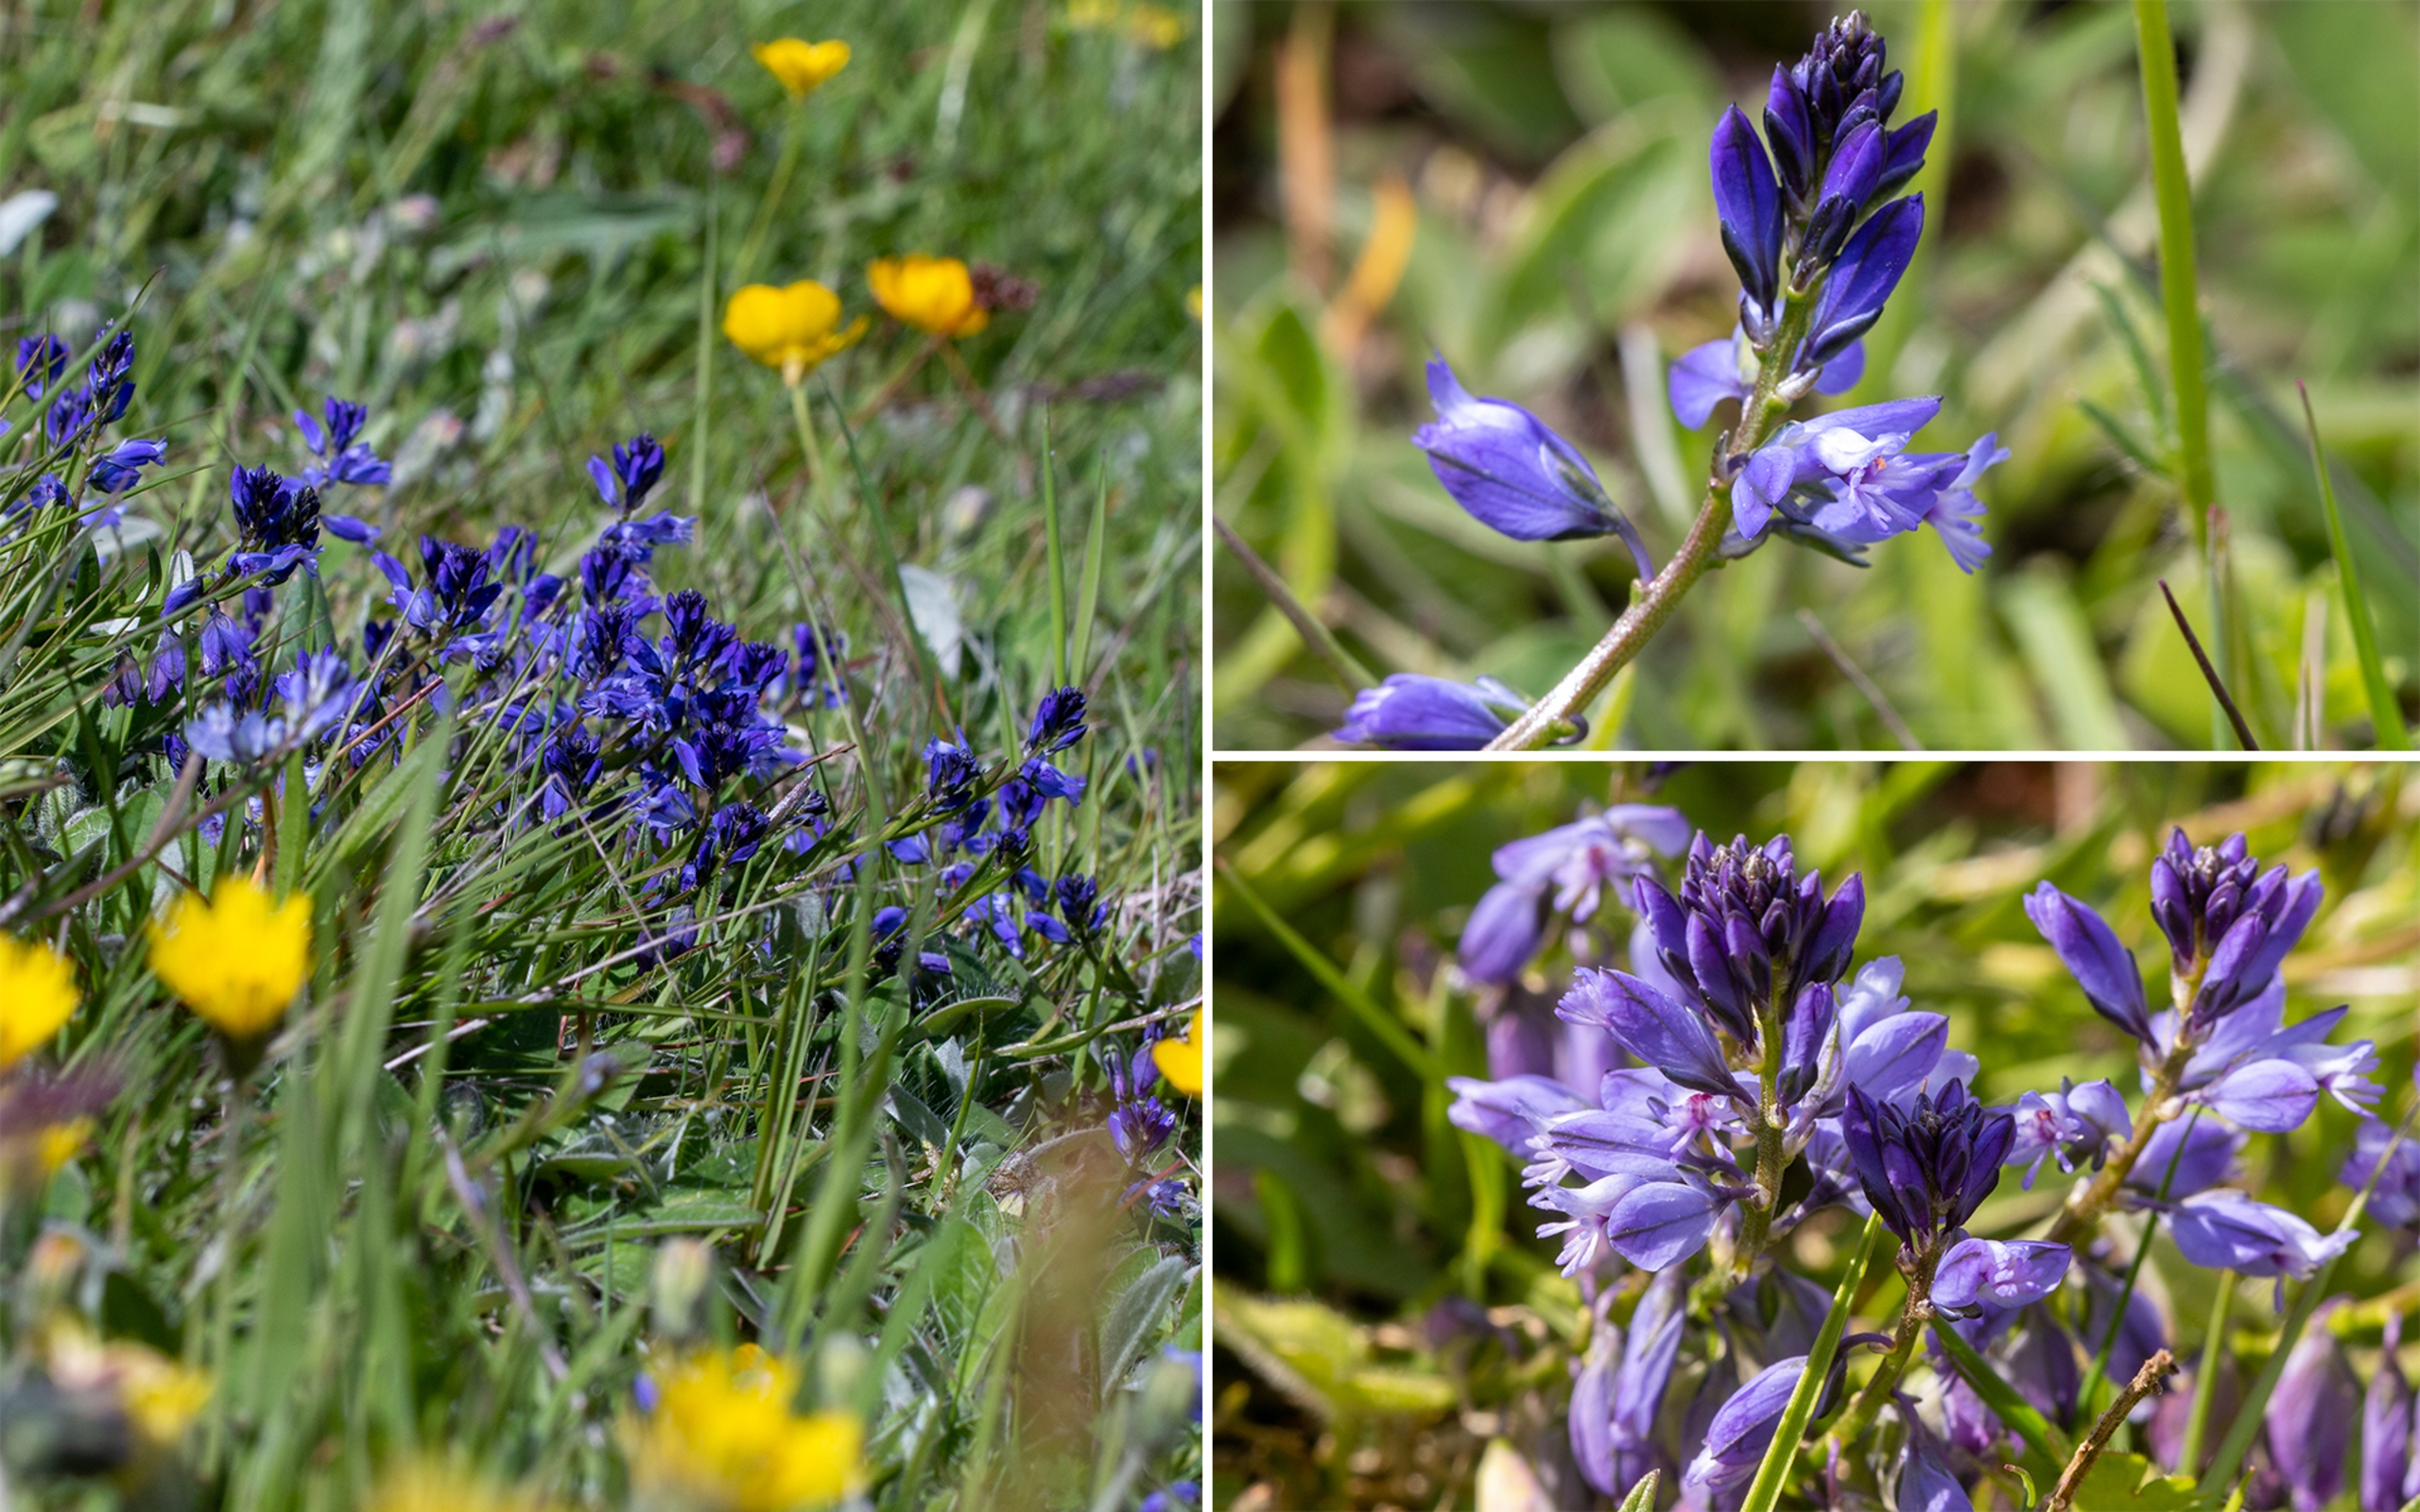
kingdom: Plantae
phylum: Tracheophyta
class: Magnoliopsida
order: Fabales
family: Polygalaceae
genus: Polygala
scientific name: Polygala vulgaris
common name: Almindelig mælkeurt
